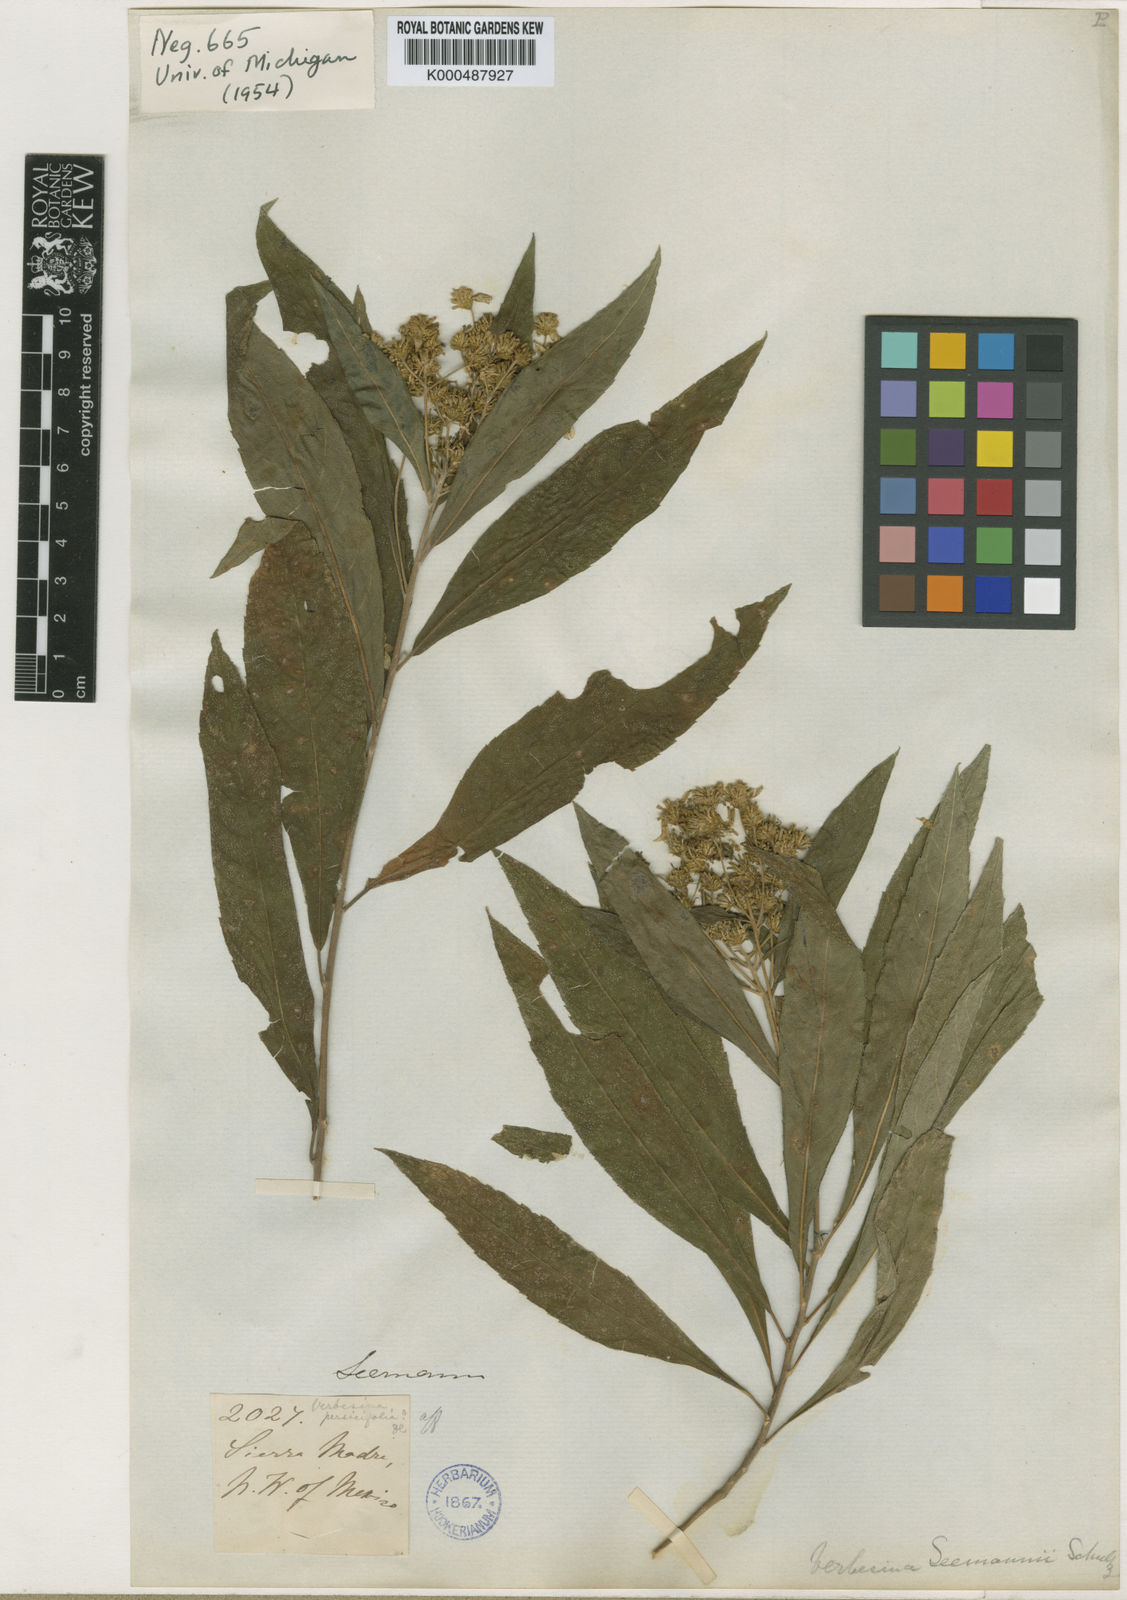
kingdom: Plantae
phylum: Tracheophyta
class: Magnoliopsida
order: Asterales
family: Asteraceae
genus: Verbesina
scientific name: Verbesina
